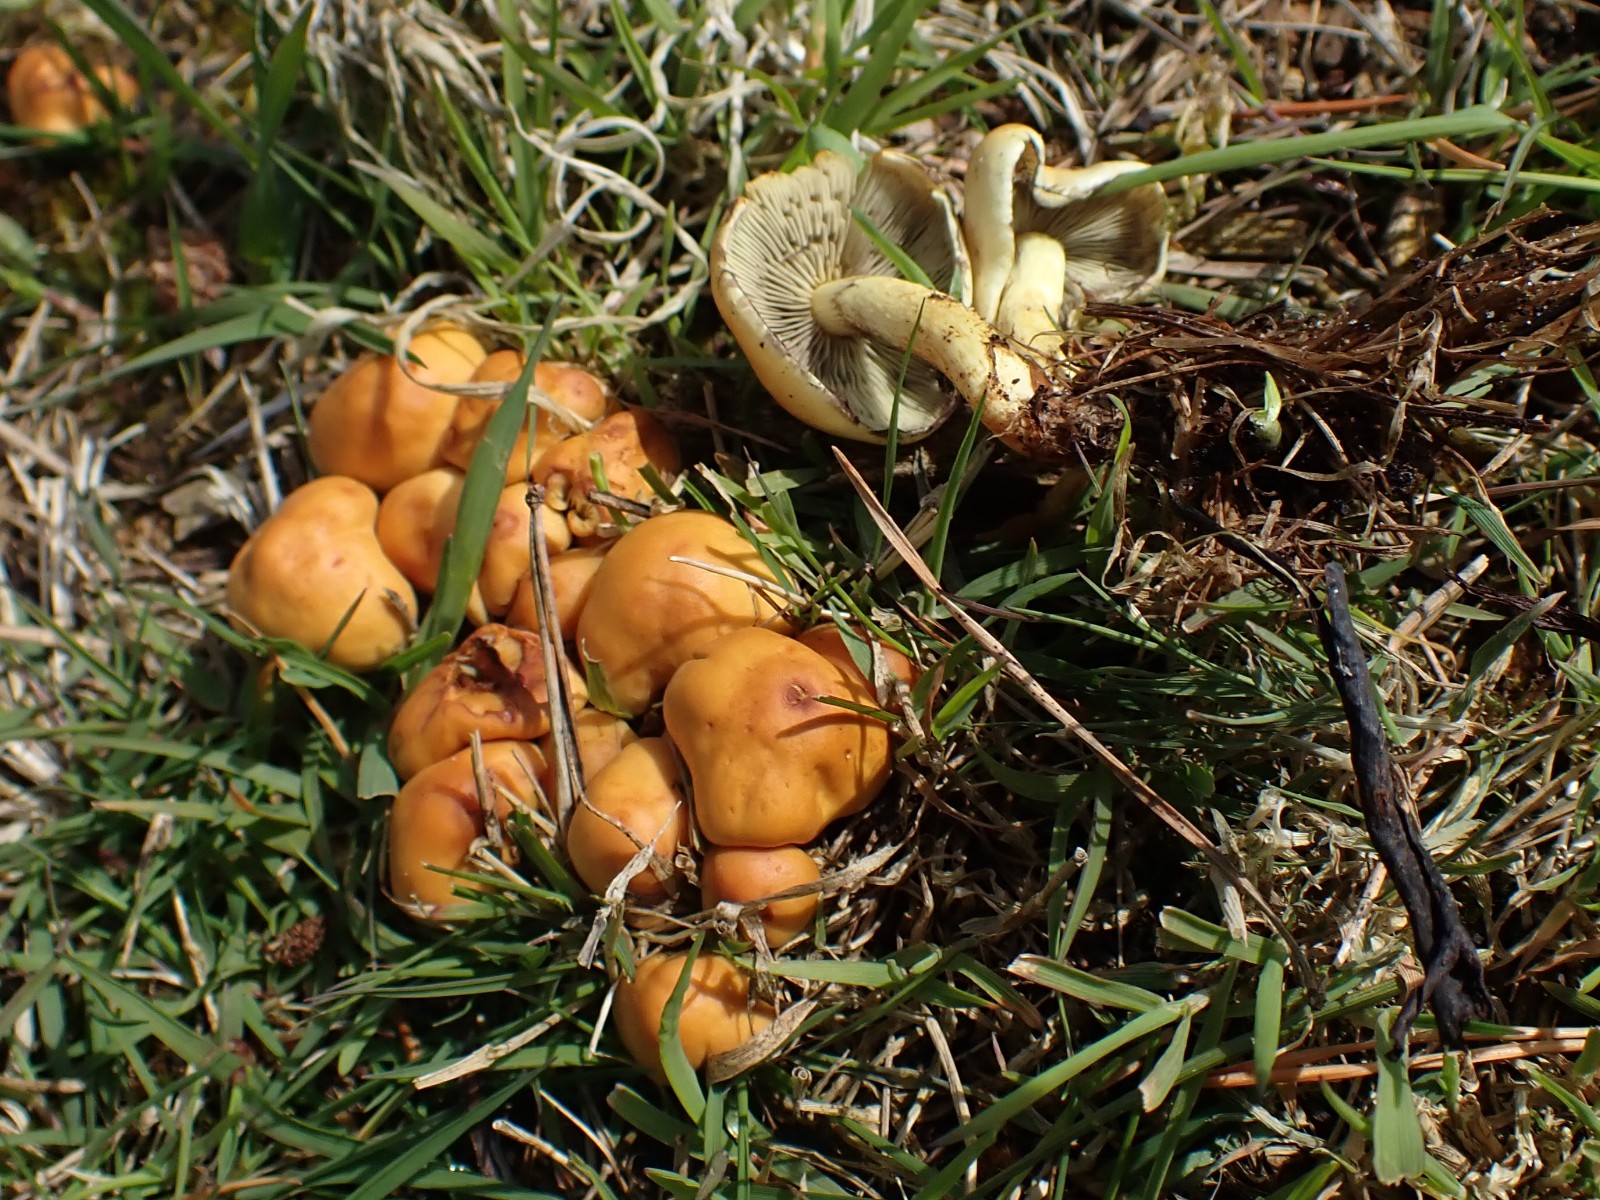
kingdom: Fungi
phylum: Basidiomycota
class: Agaricomycetes
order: Agaricales
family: Strophariaceae
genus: Hypholoma
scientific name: Hypholoma fasciculare
